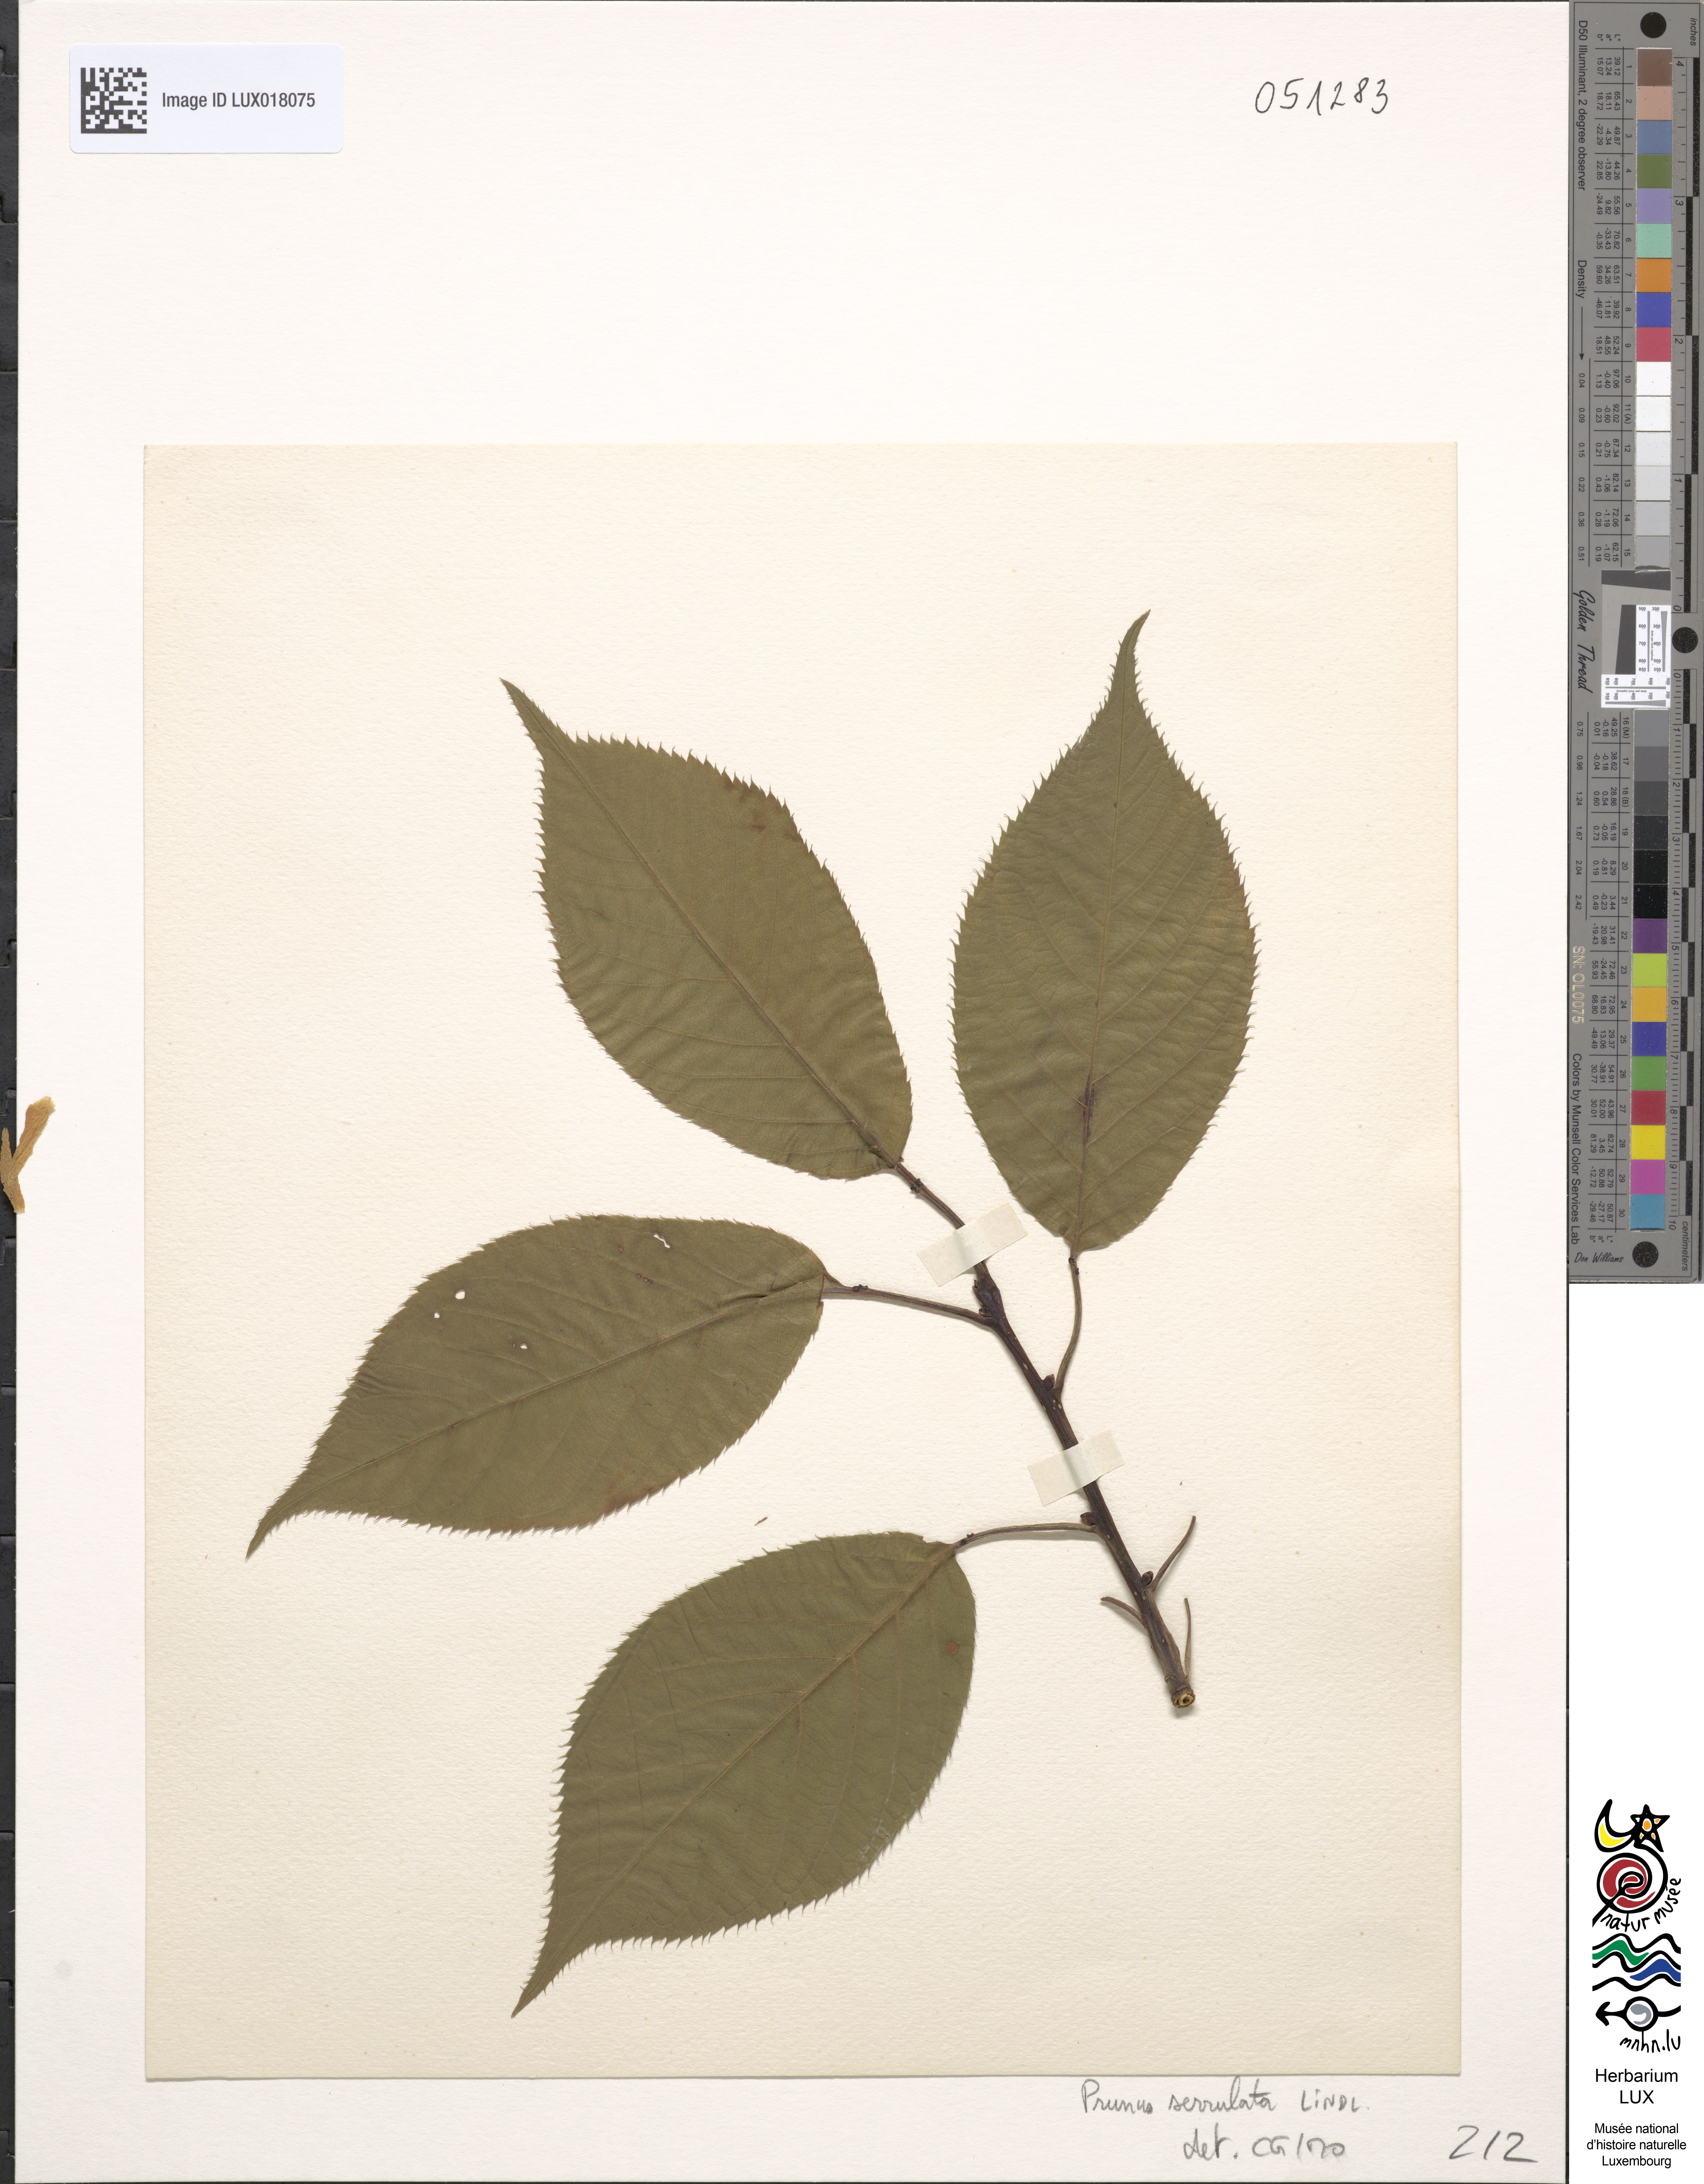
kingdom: Plantae
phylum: Tracheophyta
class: Magnoliopsida
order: Rosales
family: Rosaceae
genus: Prunus
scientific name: Prunus serrulata
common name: Japanese cherry
